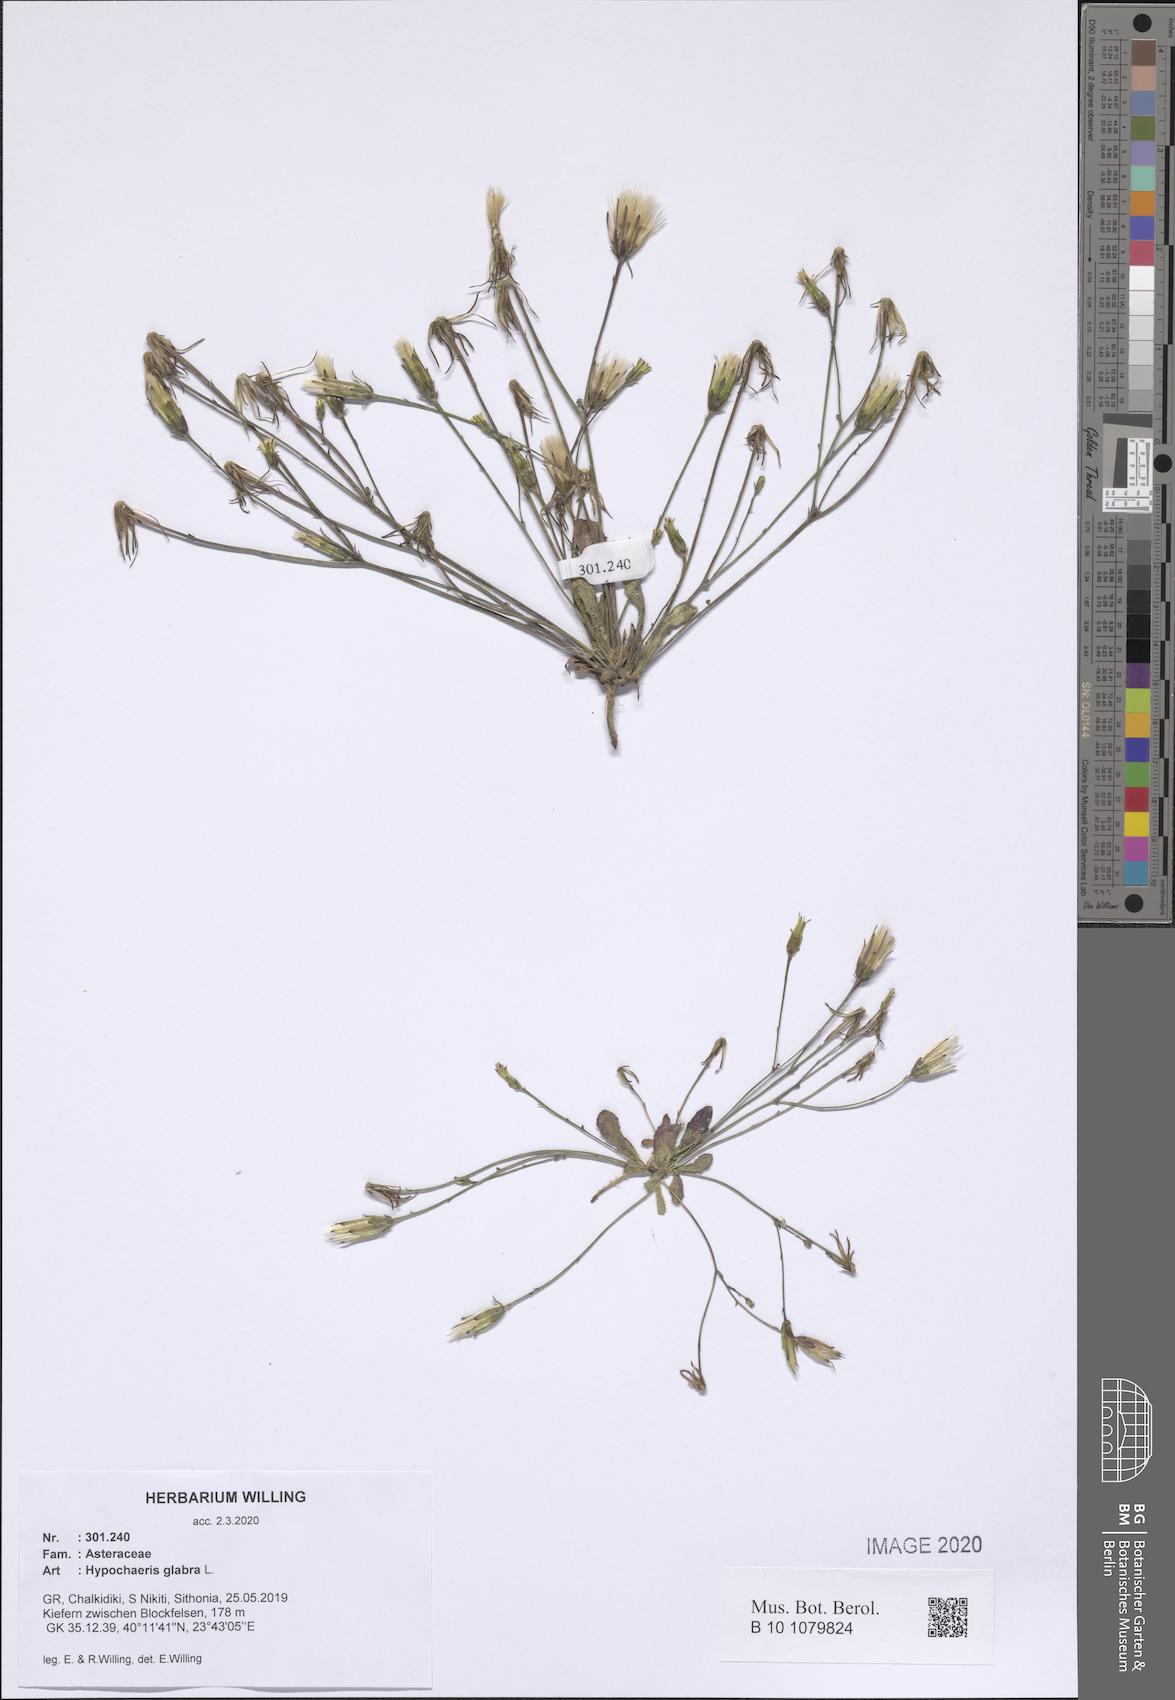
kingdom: Plantae
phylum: Tracheophyta
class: Magnoliopsida
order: Asterales
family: Asteraceae
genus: Hypochaeris
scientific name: Hypochaeris glabra
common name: Smooth catsear
